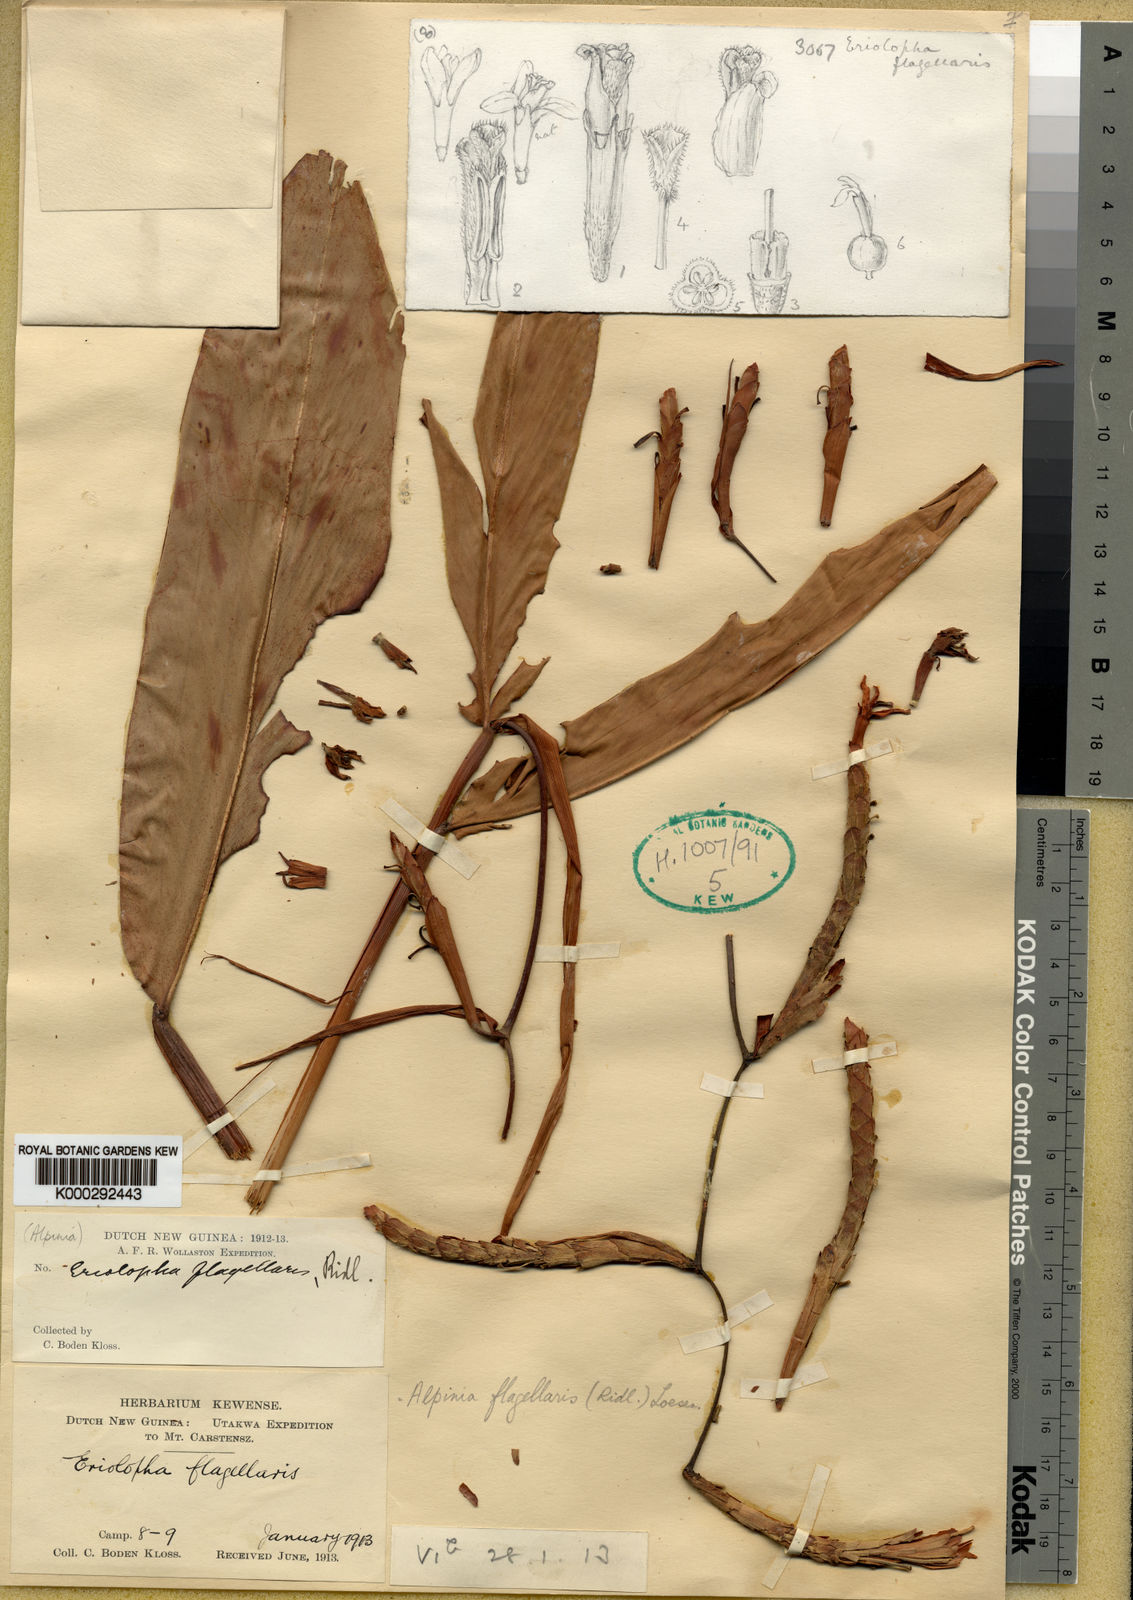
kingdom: Plantae
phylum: Tracheophyta
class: Liliopsida
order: Zingiberales
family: Zingiberaceae
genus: Alpinia
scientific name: Alpinia flagellaris
